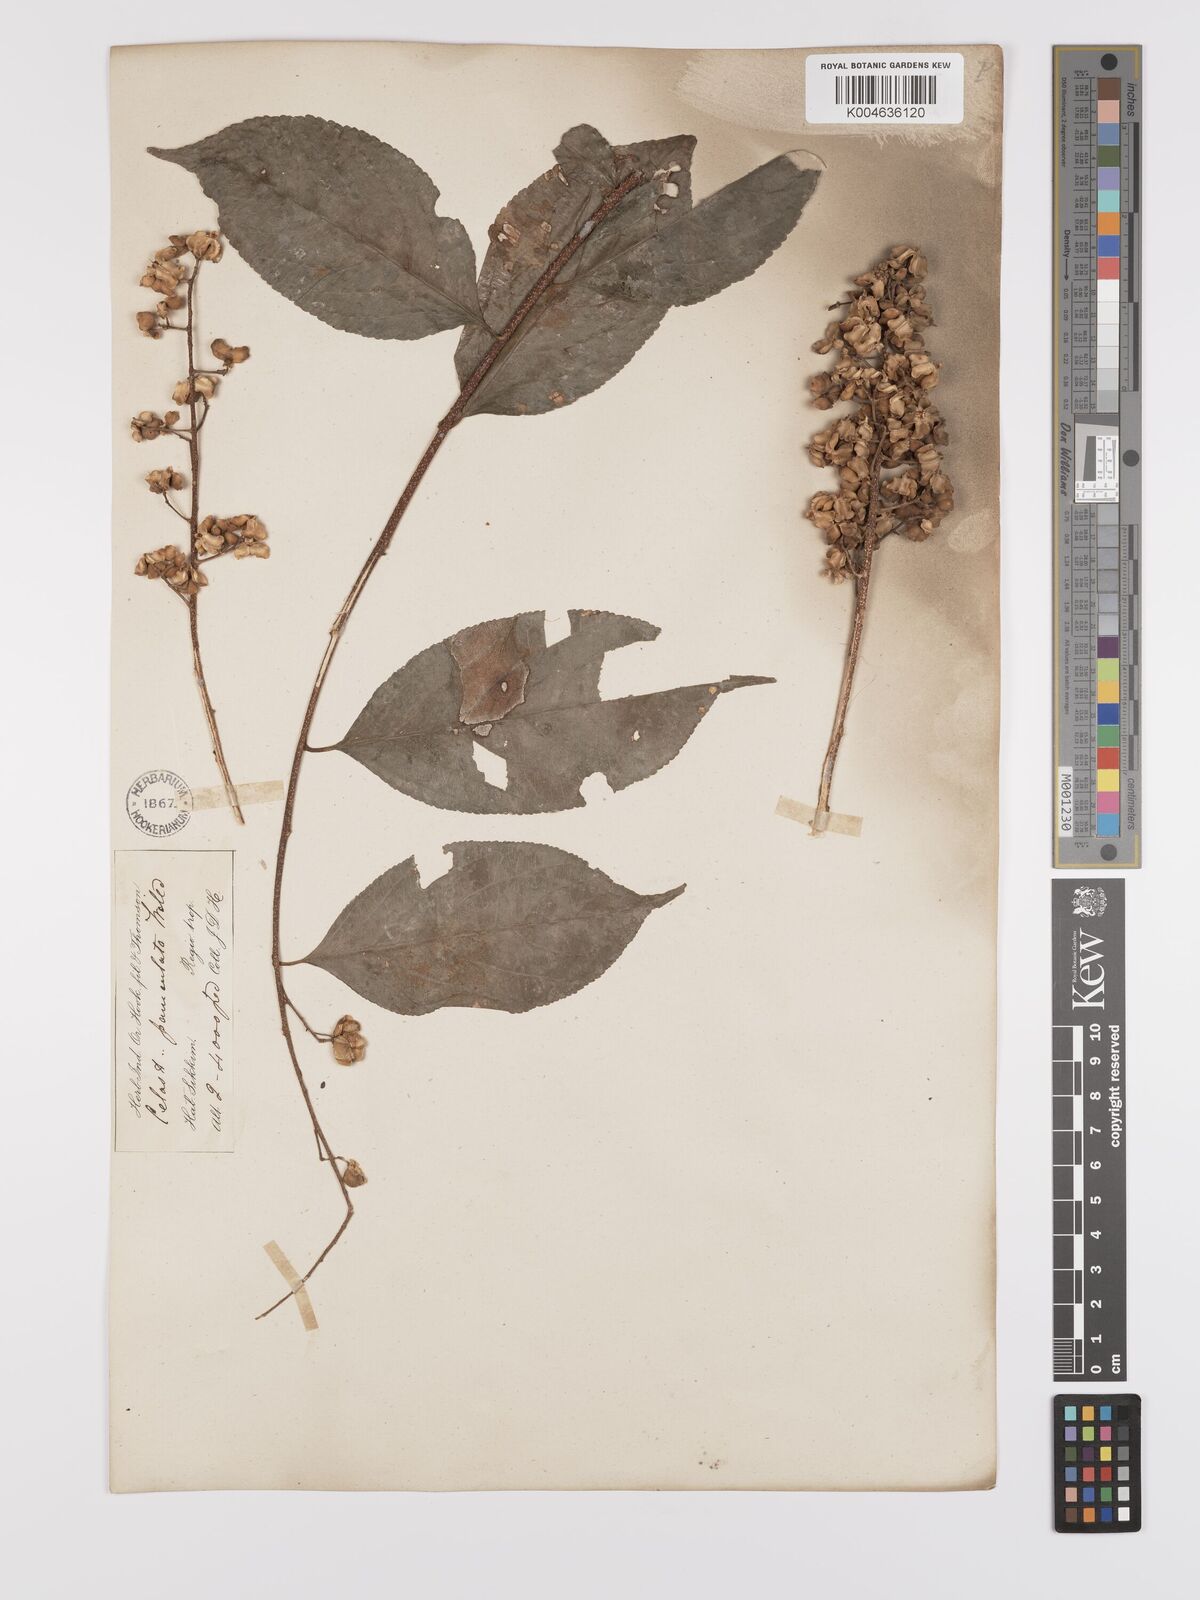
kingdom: Plantae
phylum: Tracheophyta
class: Magnoliopsida
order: Celastrales
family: Celastraceae
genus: Celastrus
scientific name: Celastrus paniculatus
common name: Oriental bittersweet; staff vine
